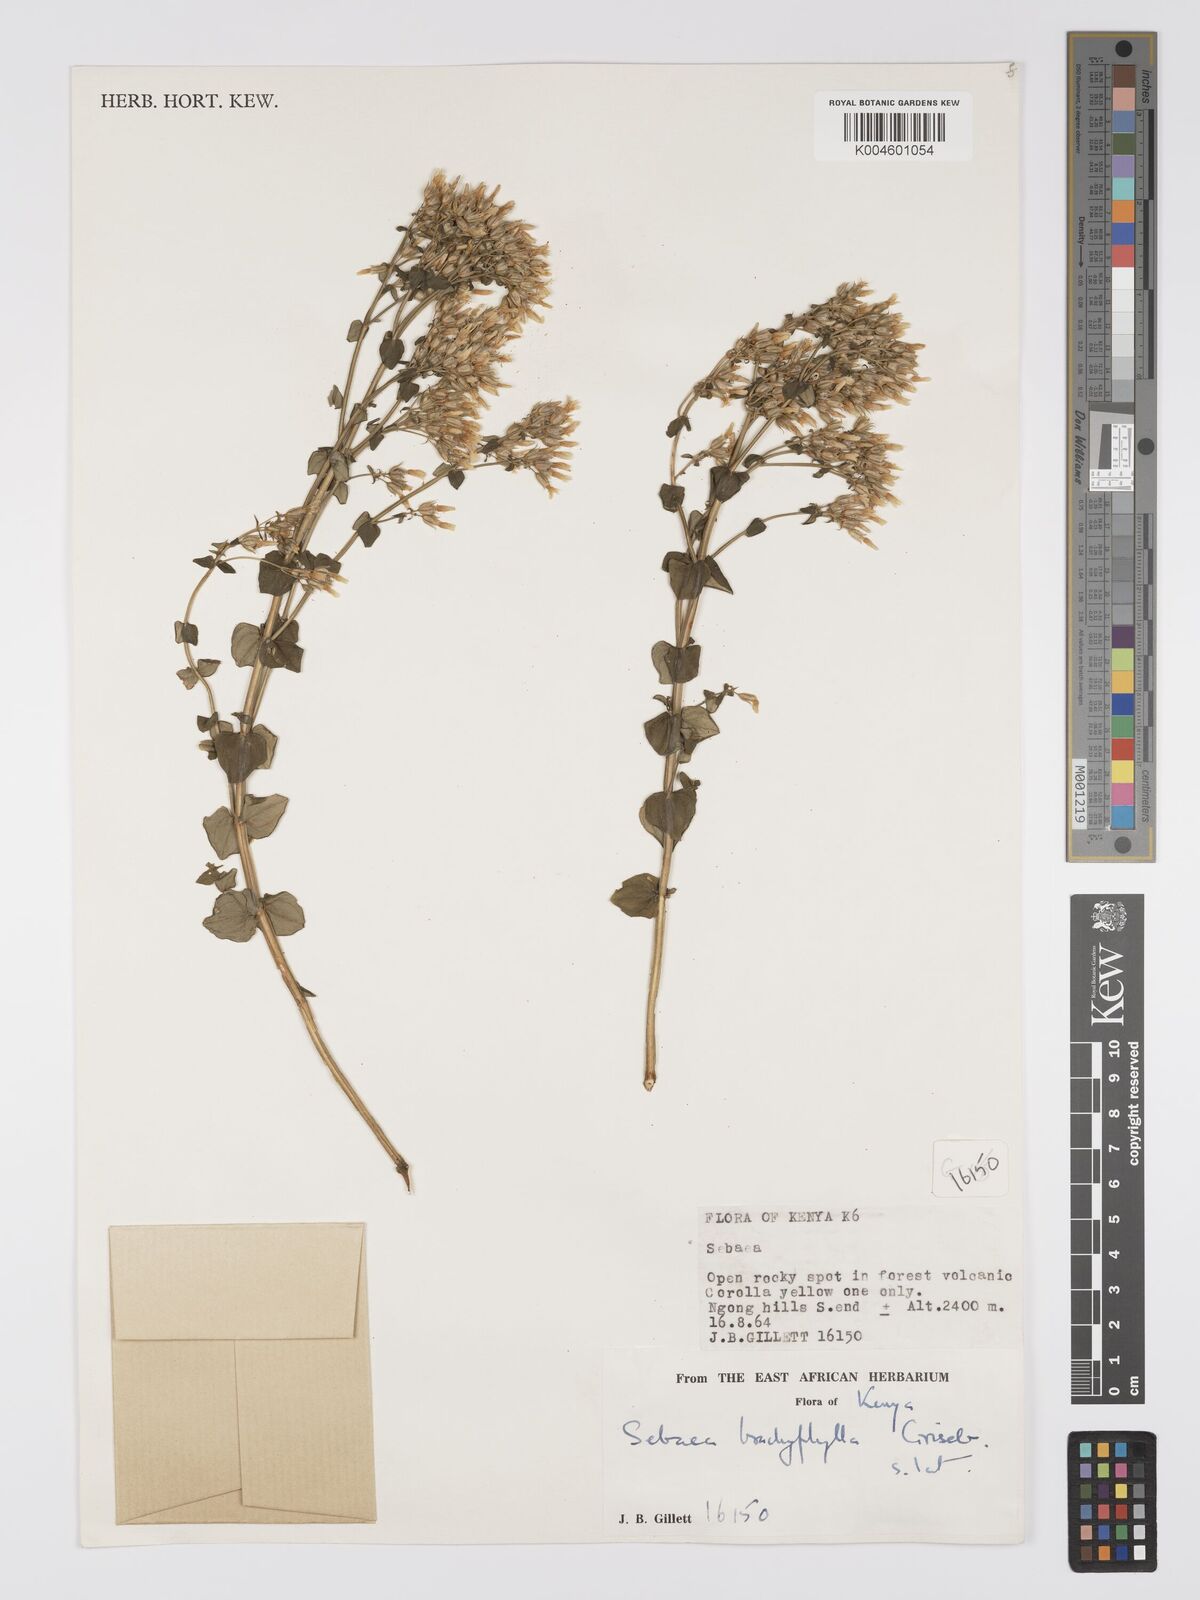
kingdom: Plantae
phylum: Tracheophyta
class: Magnoliopsida
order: Gentianales
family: Gentianaceae
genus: Sebaea
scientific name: Sebaea brachyphylla
